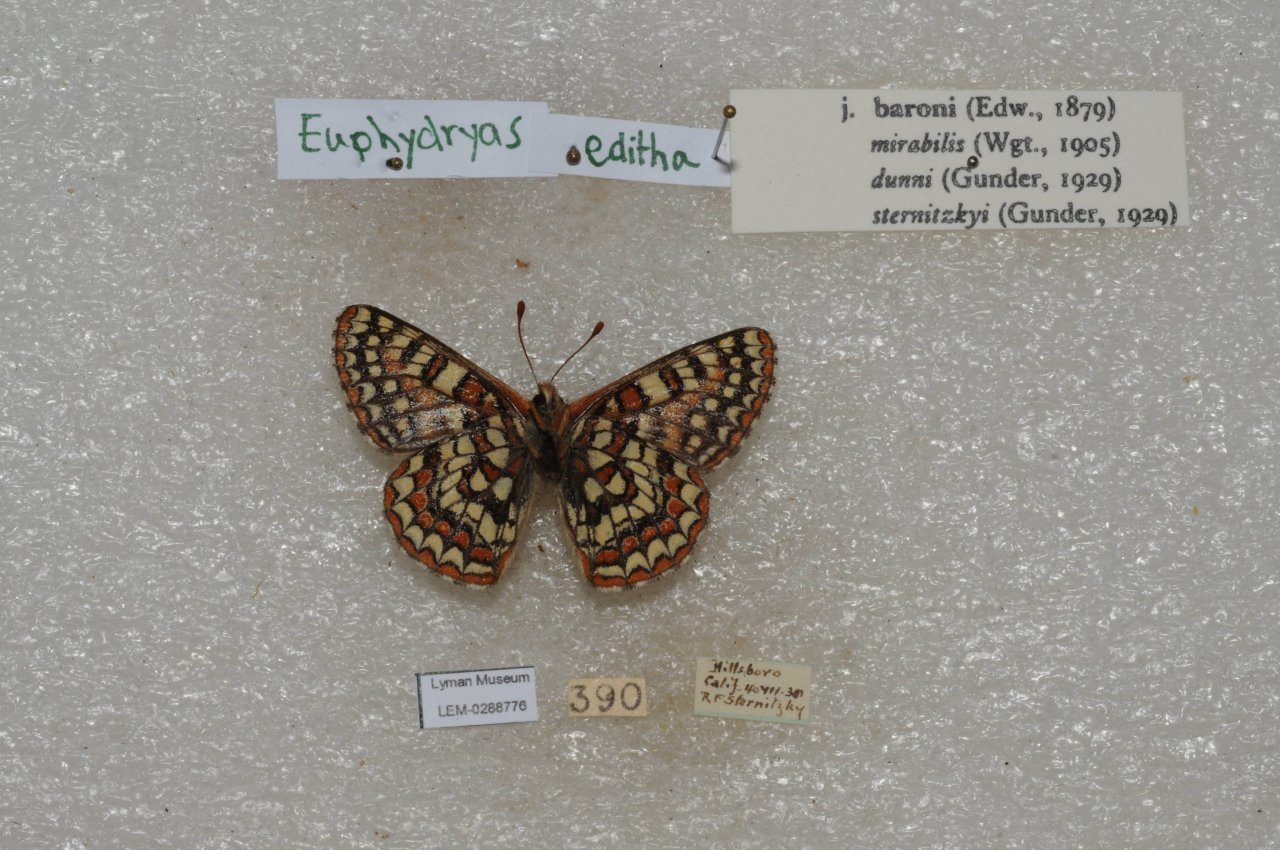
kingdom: Animalia
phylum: Arthropoda
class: Insecta
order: Lepidoptera
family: Nymphalidae
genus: Occidryas
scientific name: Occidryas editha
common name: Edith's Checkerspot
